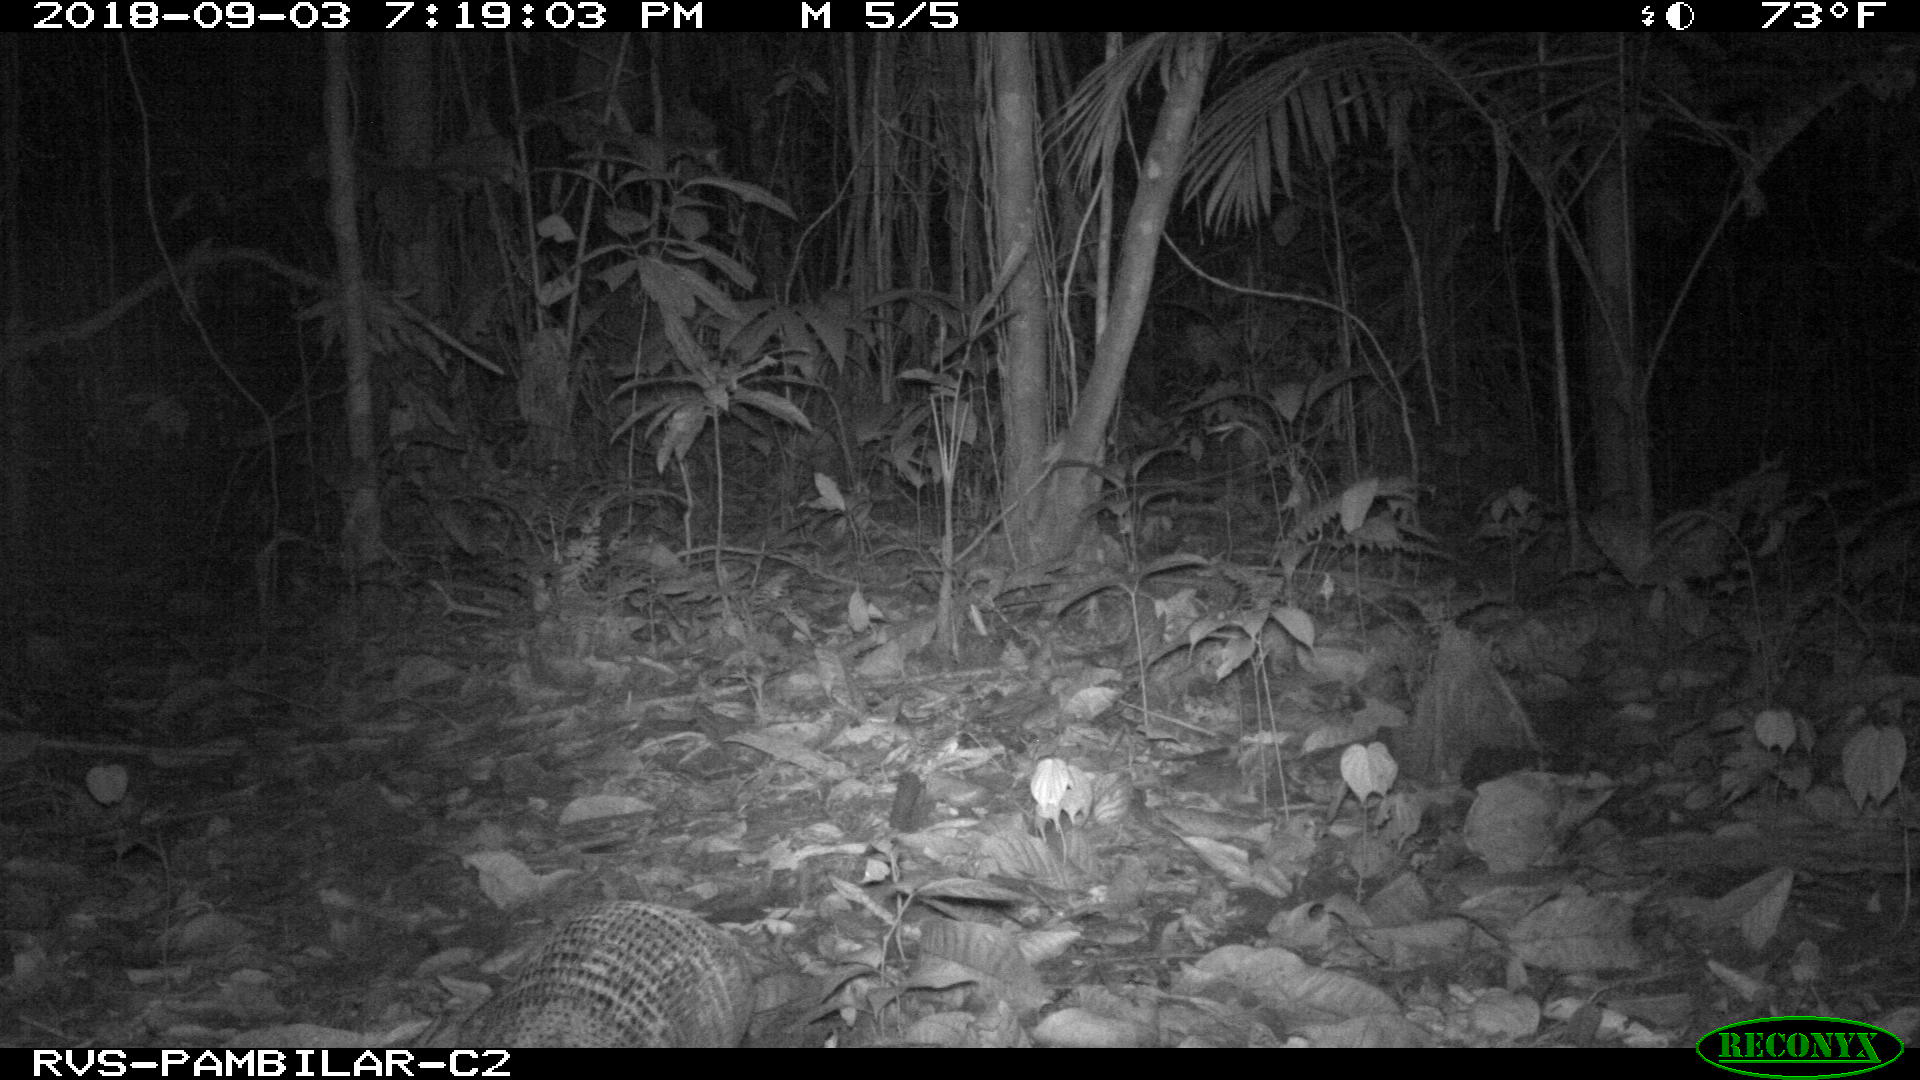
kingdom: Animalia
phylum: Chordata
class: Mammalia
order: Cingulata
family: Dasypodidae
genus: Dasypus
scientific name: Dasypus novemcinctus
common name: Nine-banded armadillo
